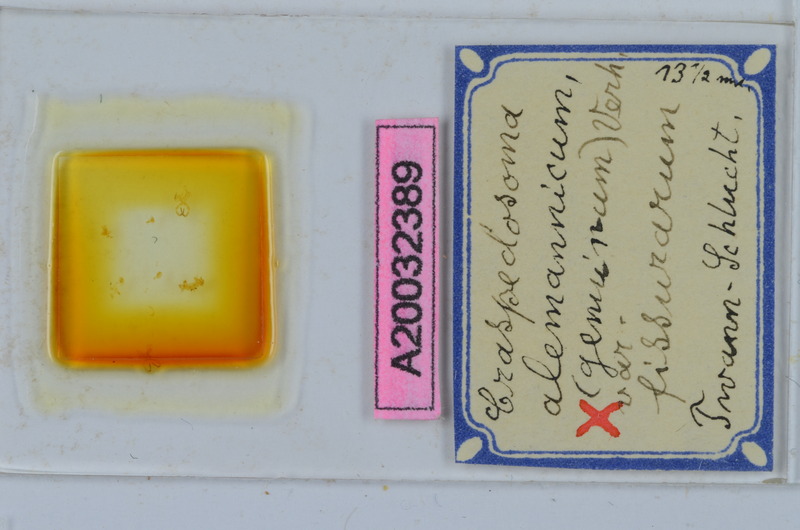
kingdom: Animalia
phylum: Arthropoda
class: Diplopoda
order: Chordeumatida
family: Craspedosomatidae
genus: Craspedosoma
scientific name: Craspedosoma rawlinsii
